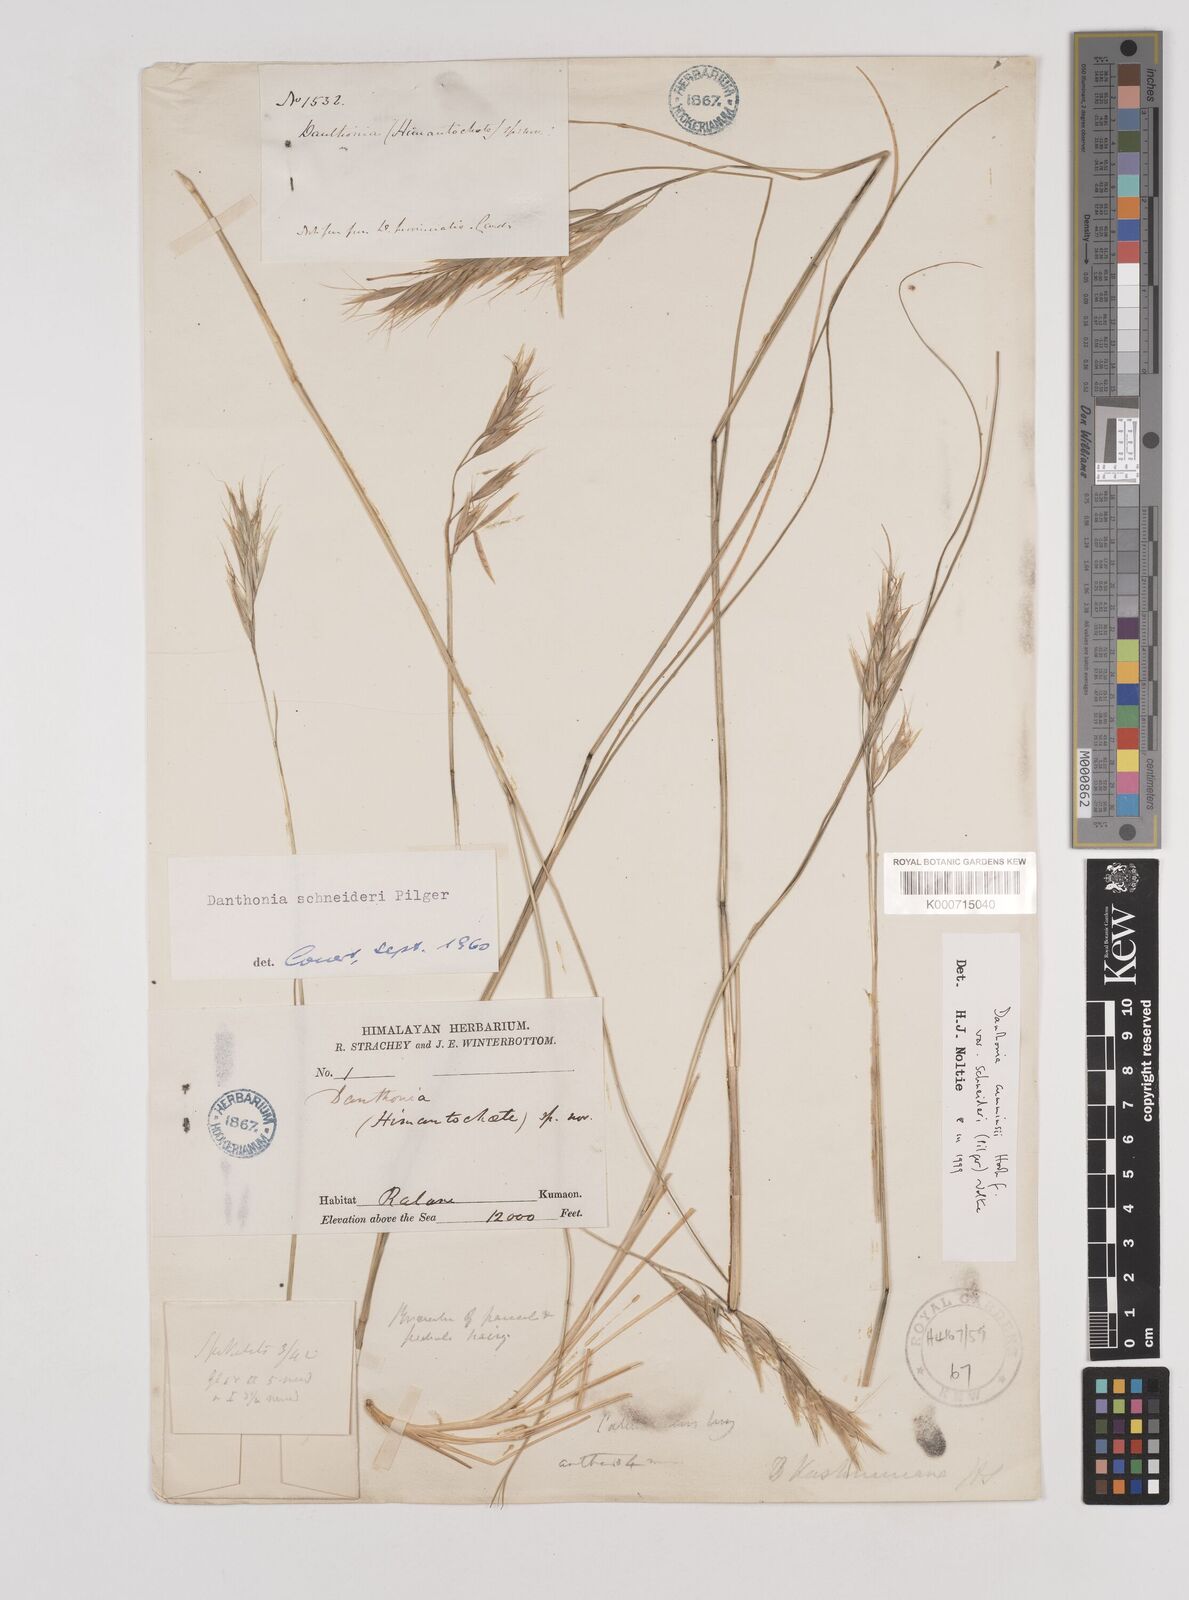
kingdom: Plantae
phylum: Tracheophyta
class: Liliopsida
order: Poales
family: Poaceae
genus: Rytidosperma
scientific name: Rytidosperma
